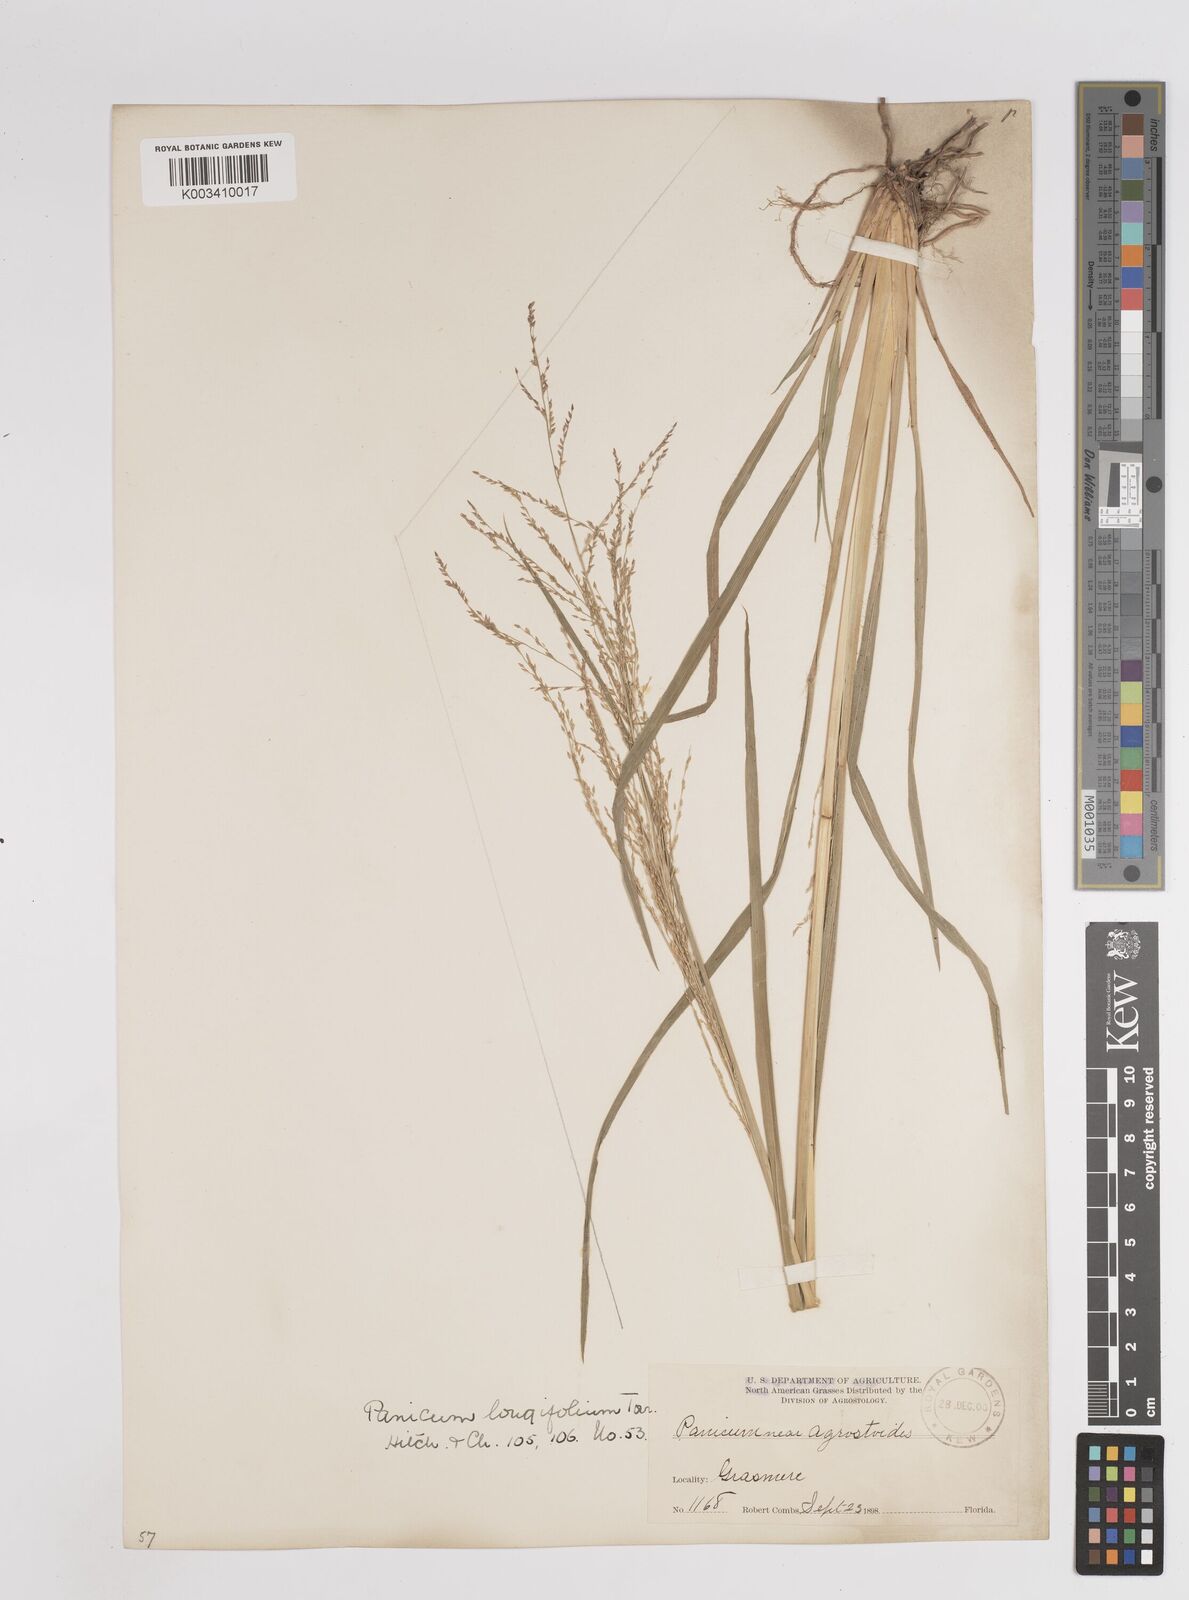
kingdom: Plantae
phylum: Tracheophyta
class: Liliopsida
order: Poales
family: Poaceae
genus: Coleataenia
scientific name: Coleataenia longifolia
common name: Long-leaved panicgrass
